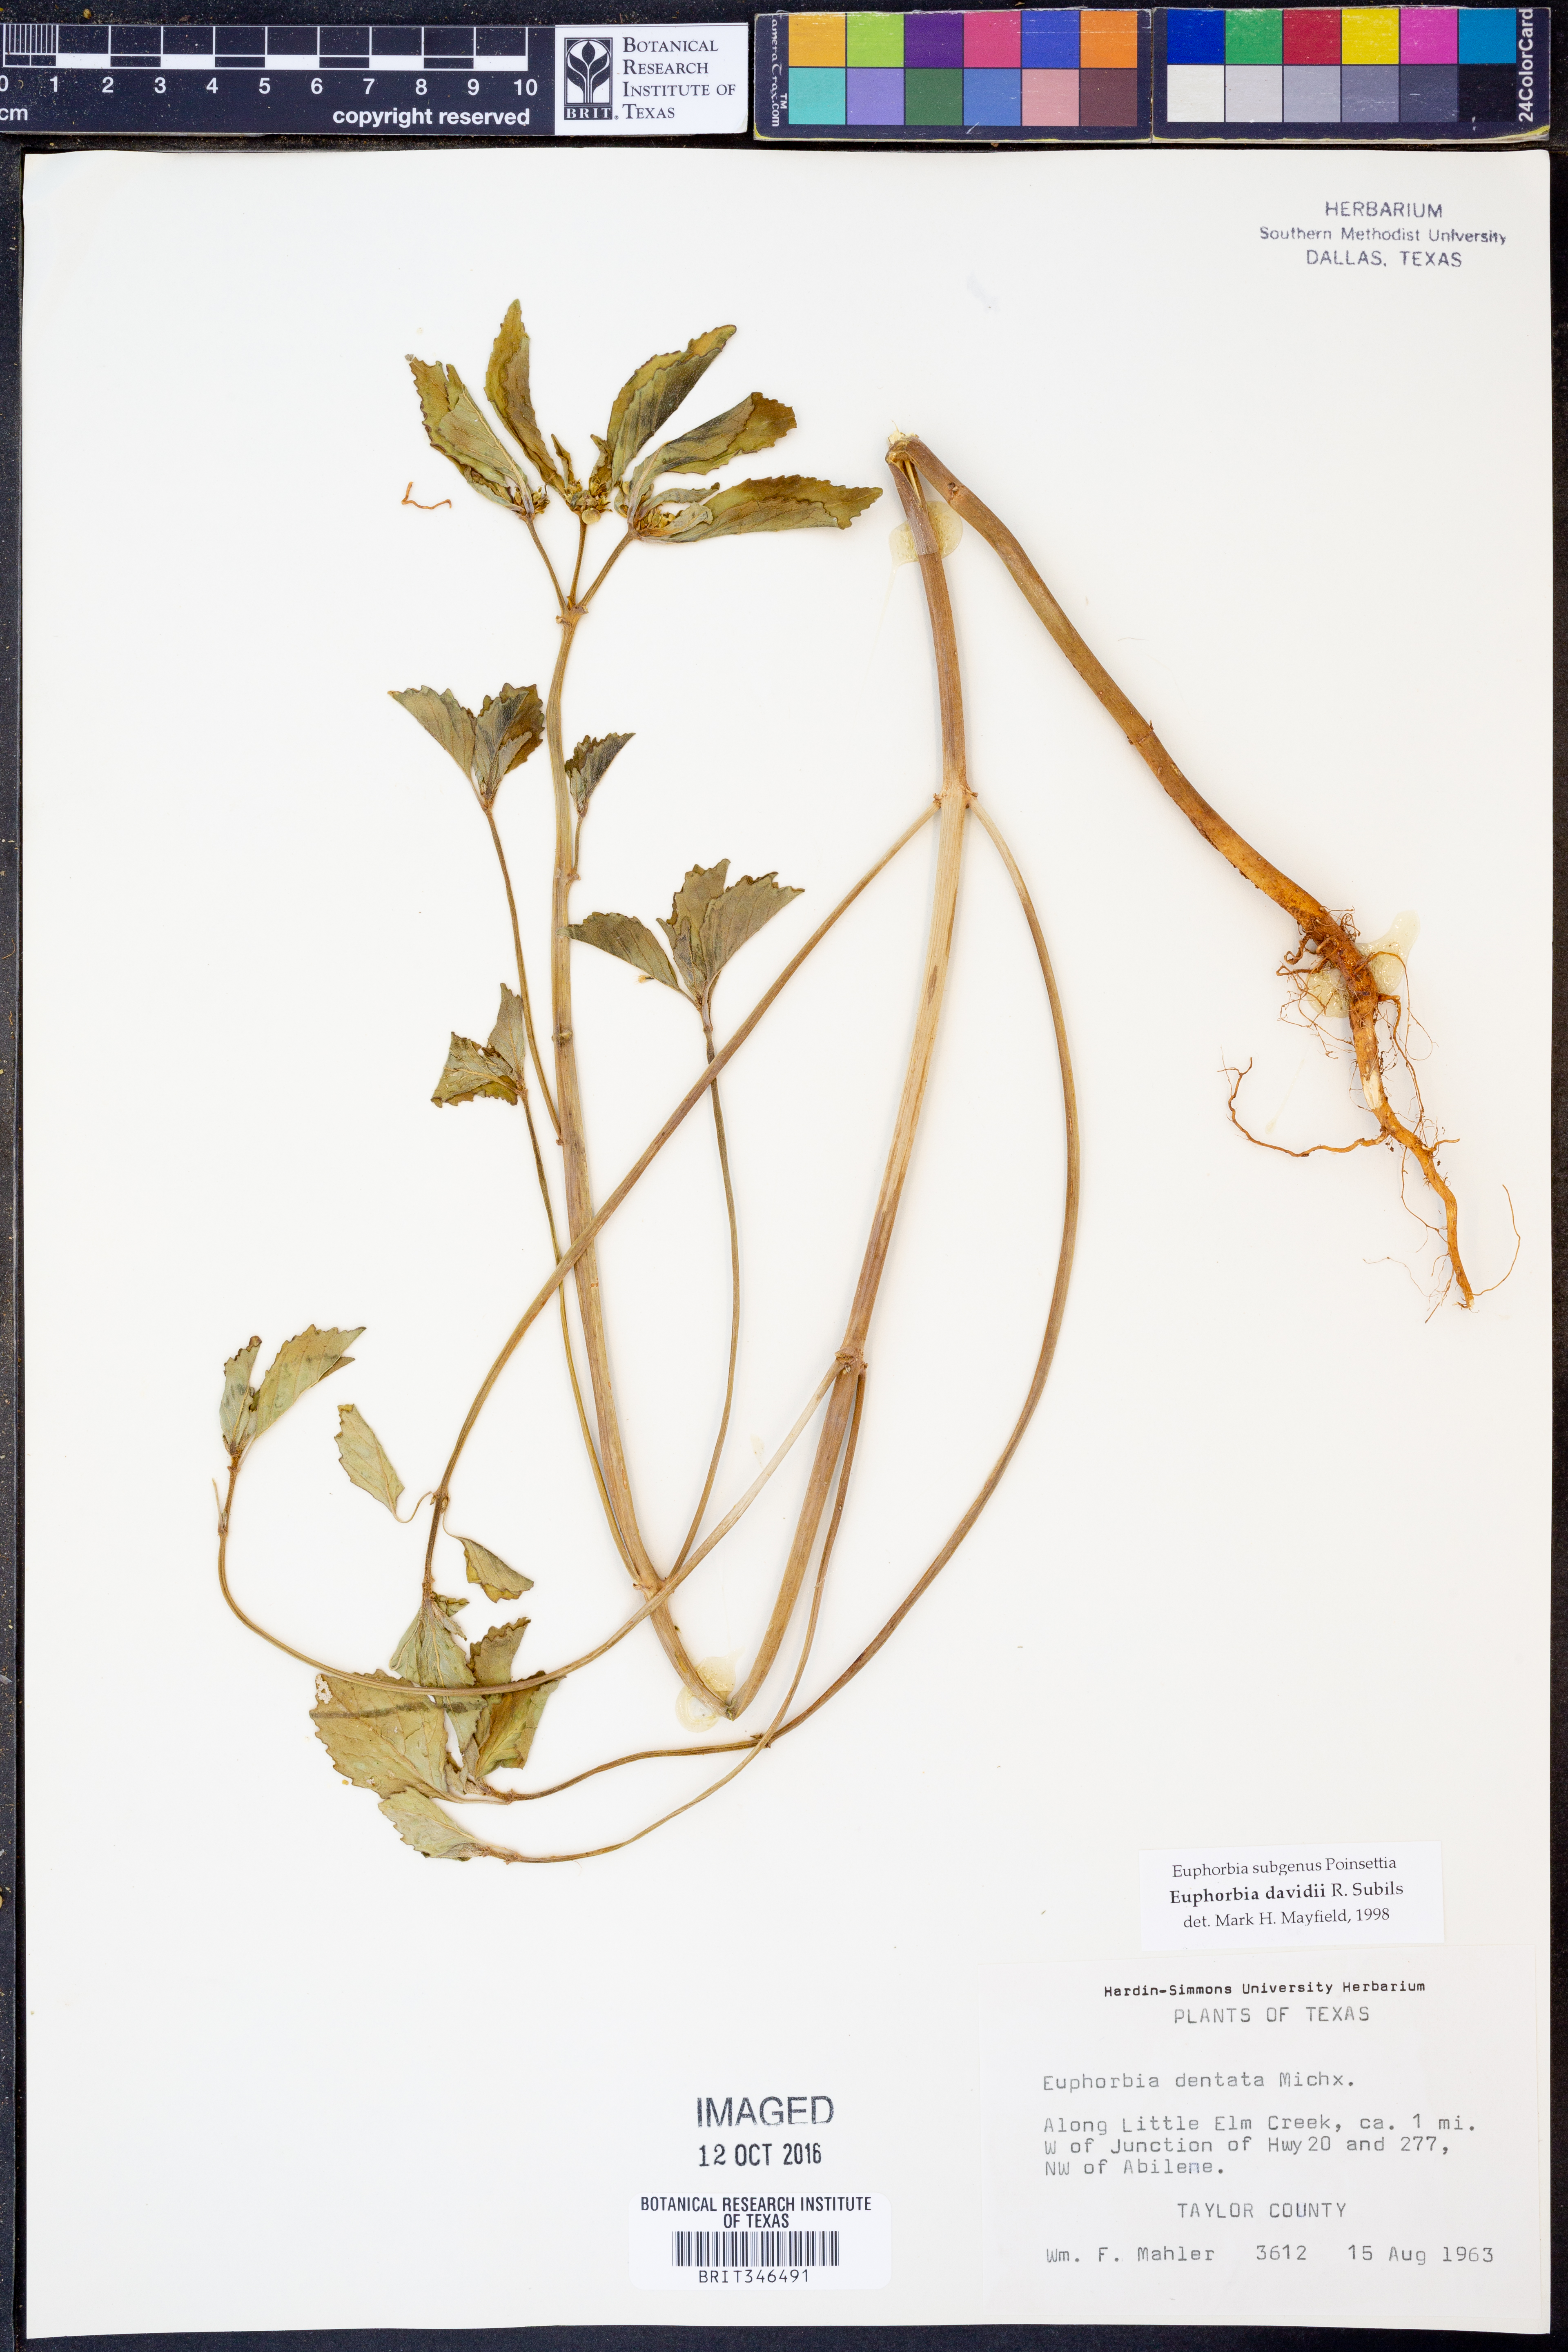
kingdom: Plantae
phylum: Tracheophyta
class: Magnoliopsida
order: Malpighiales
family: Euphorbiaceae
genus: Euphorbia
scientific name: Euphorbia davidii
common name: David's spurge
